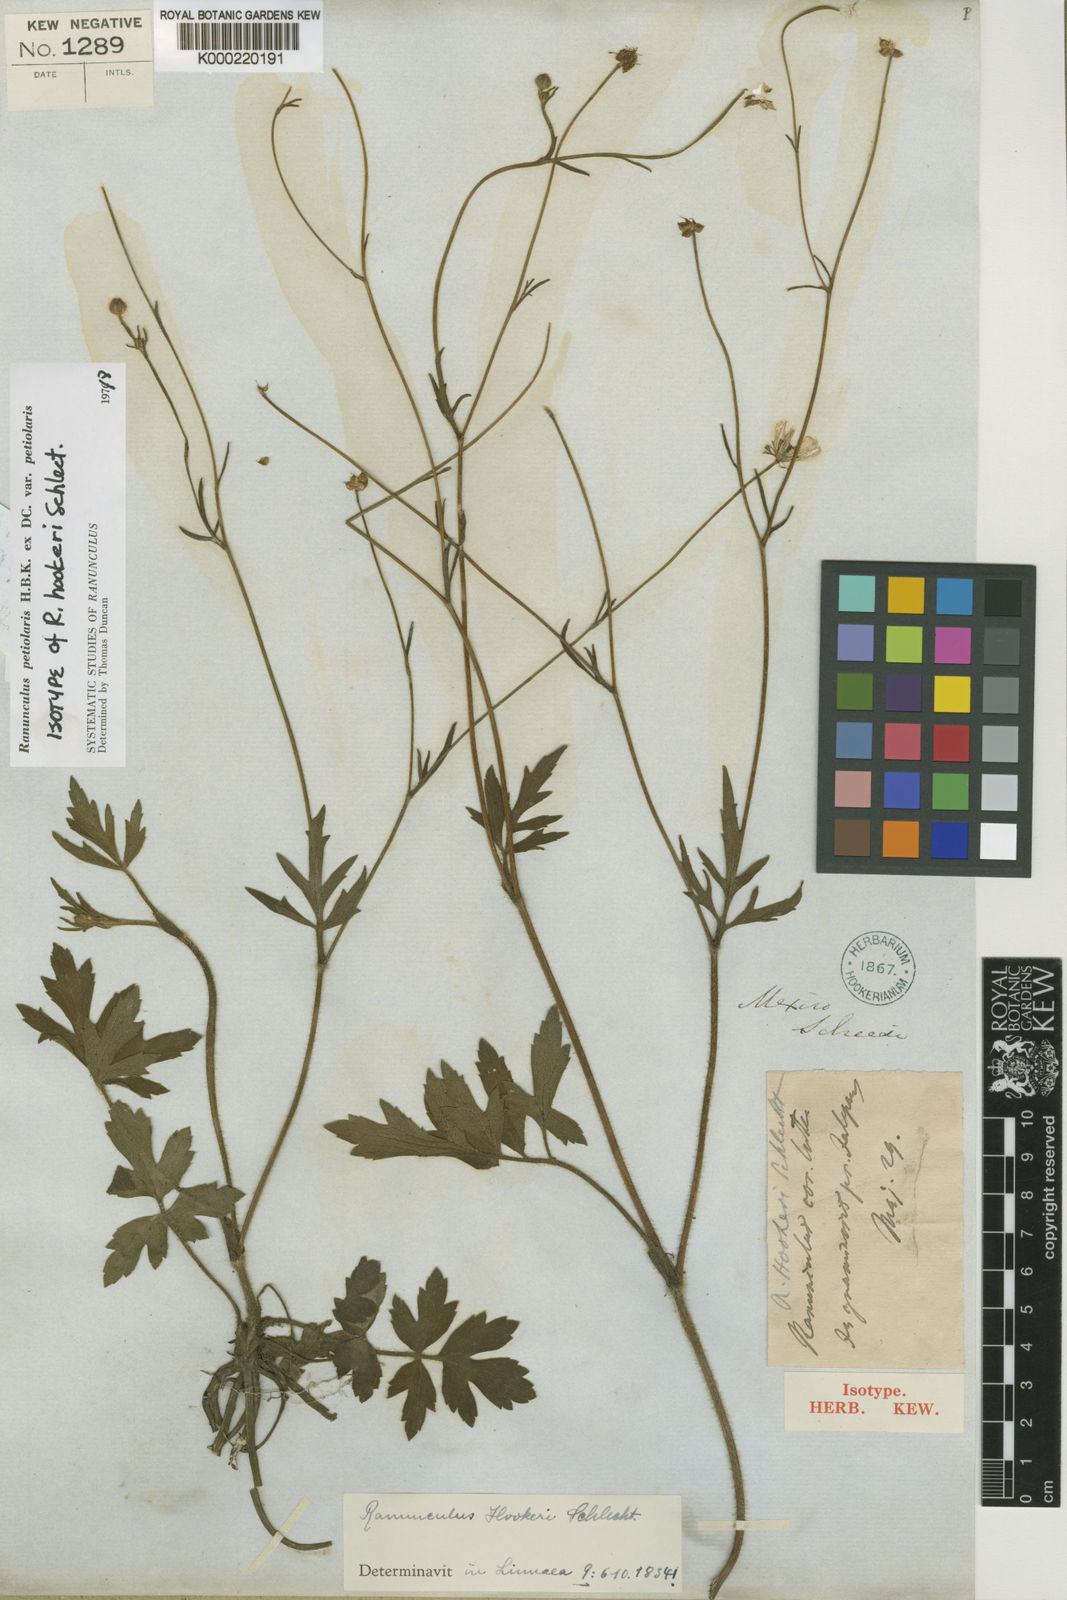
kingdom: Plantae
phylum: Tracheophyta
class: Magnoliopsida
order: Ranunculales
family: Ranunculaceae
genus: Ranunculus
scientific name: Ranunculus petiolaris
